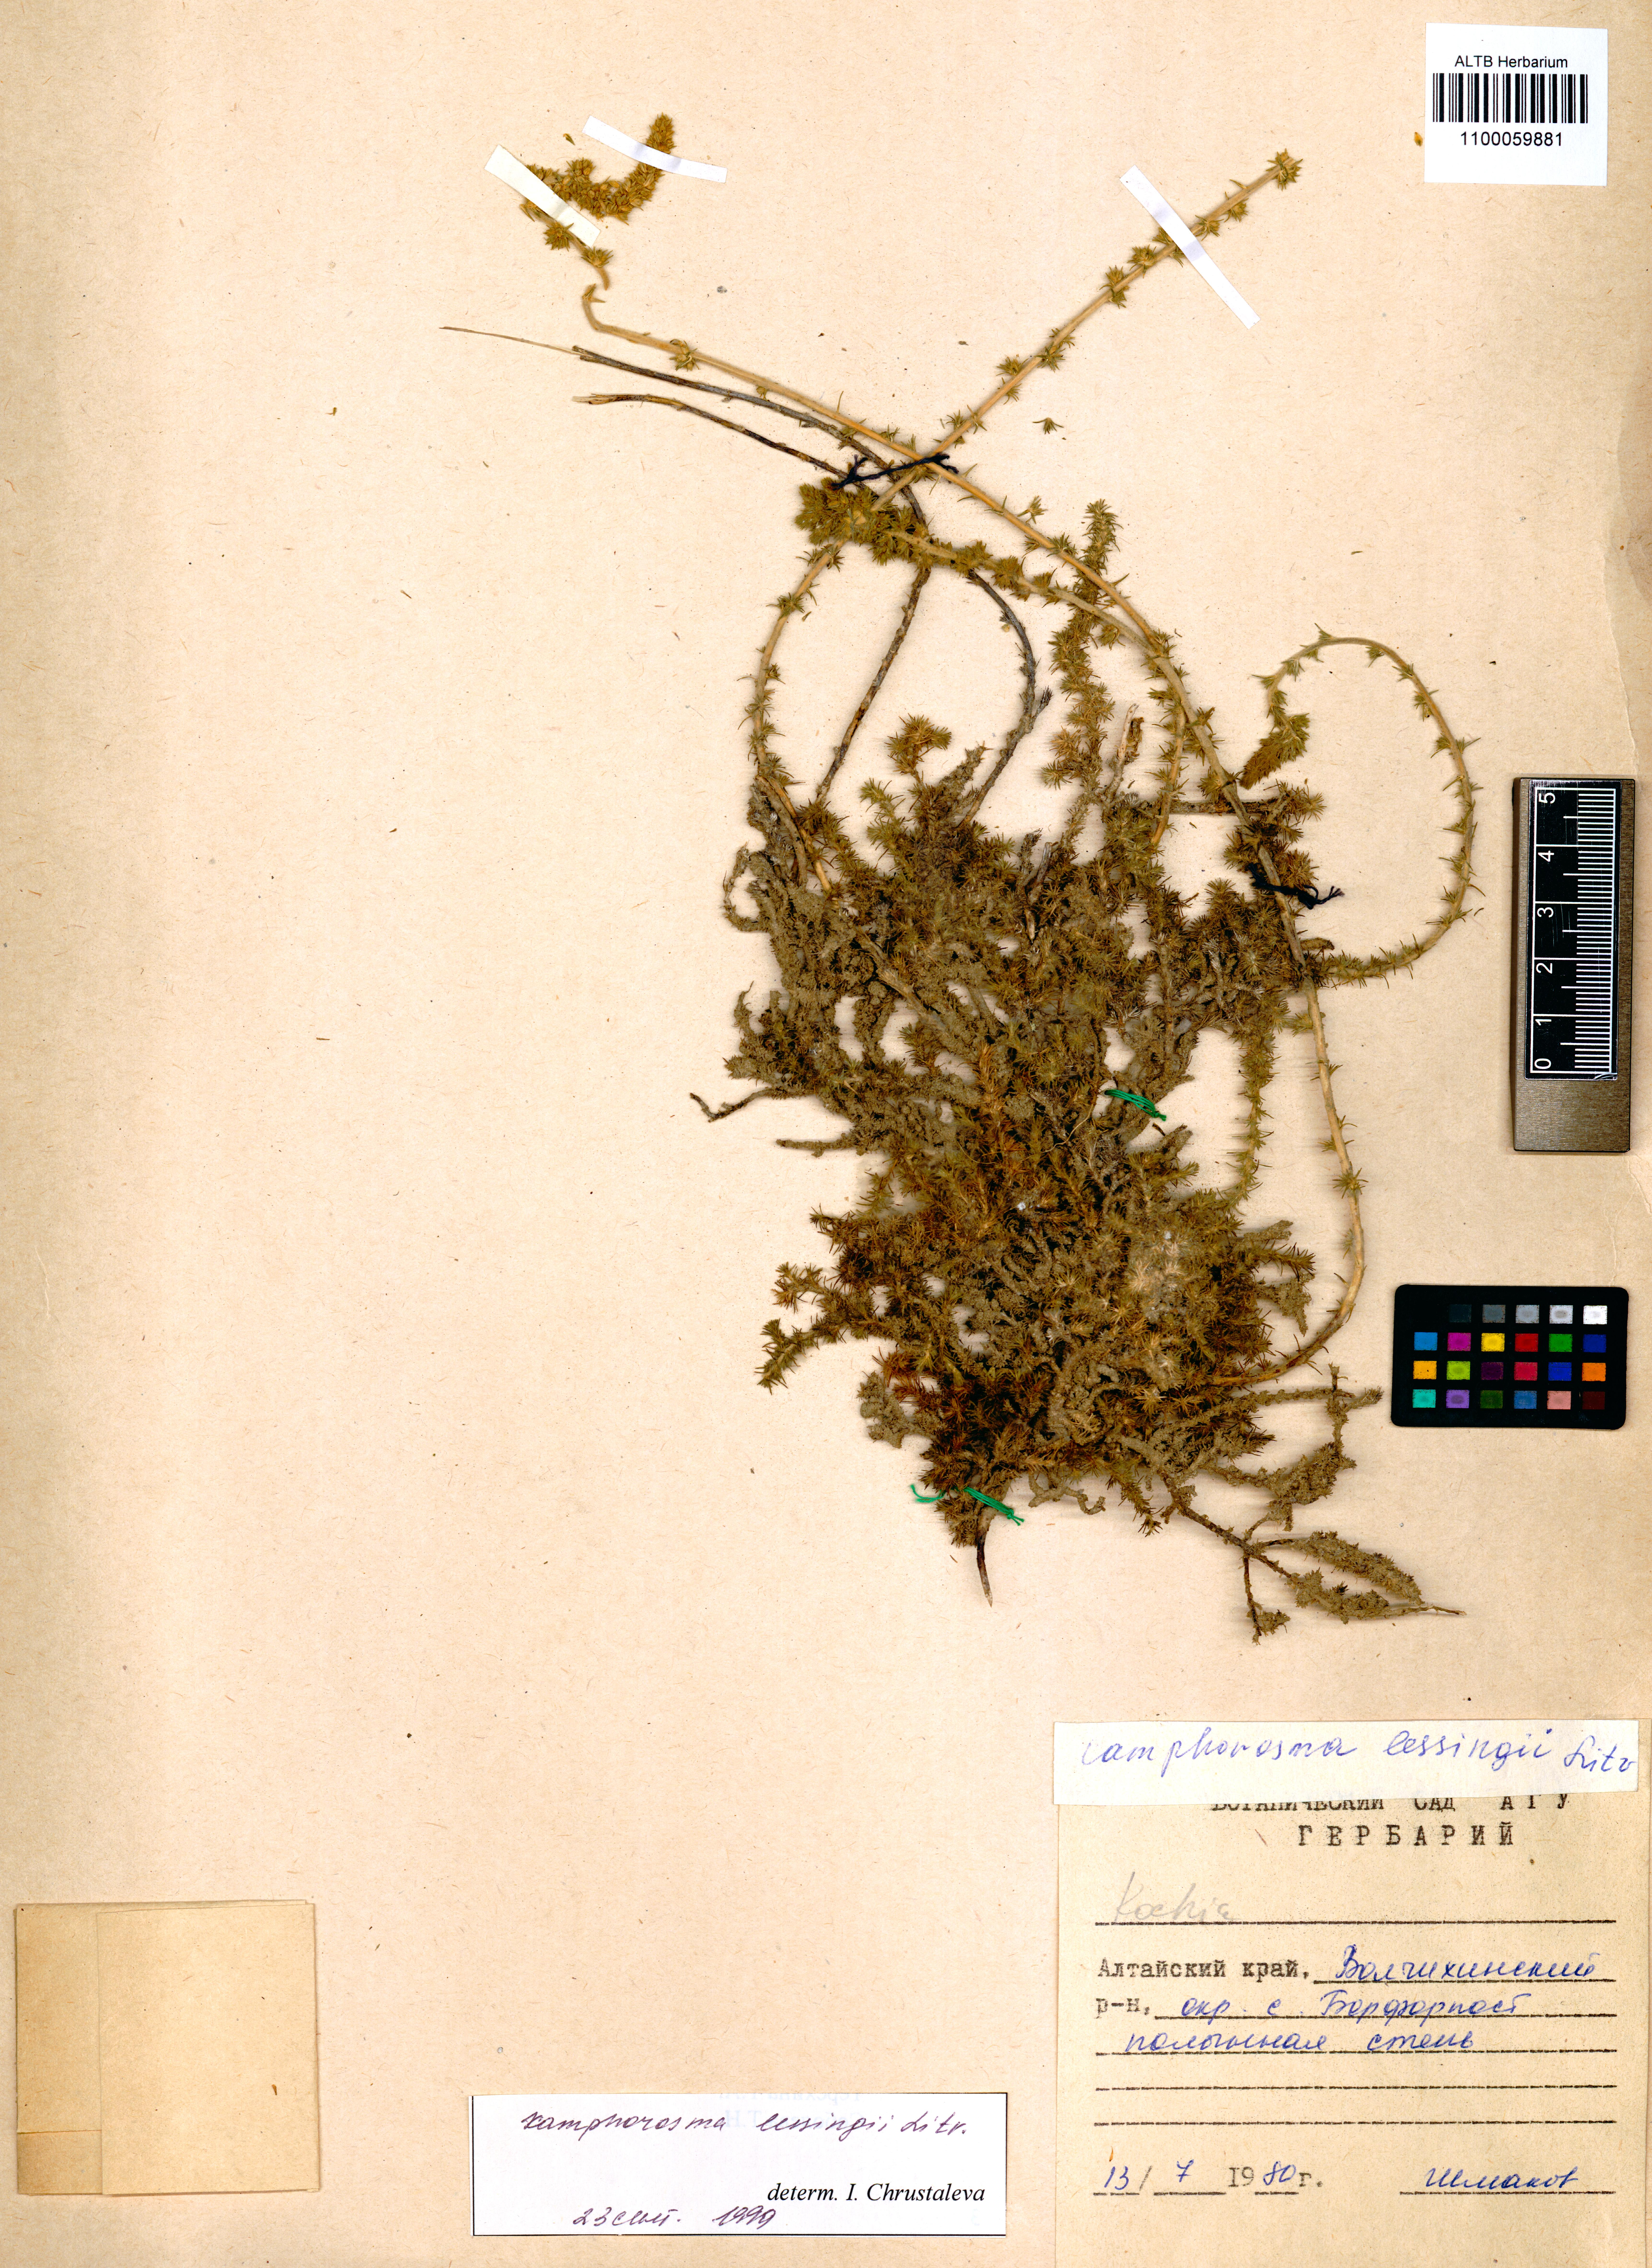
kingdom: Plantae
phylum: Tracheophyta
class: Magnoliopsida
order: Caryophyllales
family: Amaranthaceae
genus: Camphorosma
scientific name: Camphorosma monspeliaca
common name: Camphorfume
